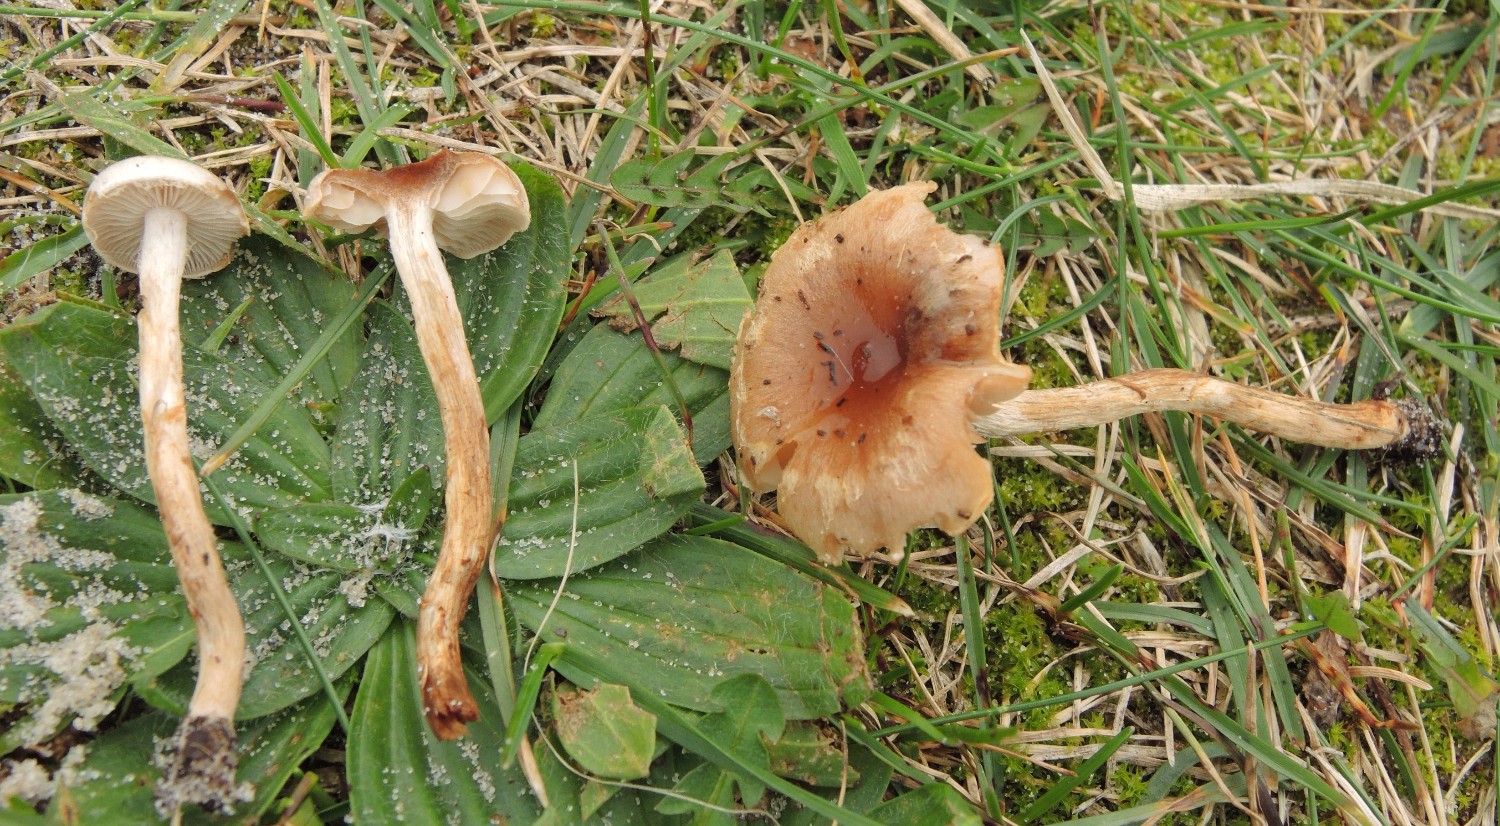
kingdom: Fungi
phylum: Basidiomycota
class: Agaricomycetes
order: Agaricales
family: Hymenogastraceae
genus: Hebeloma
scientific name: Hebeloma mesophaeum
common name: lerbrun tåreblad
